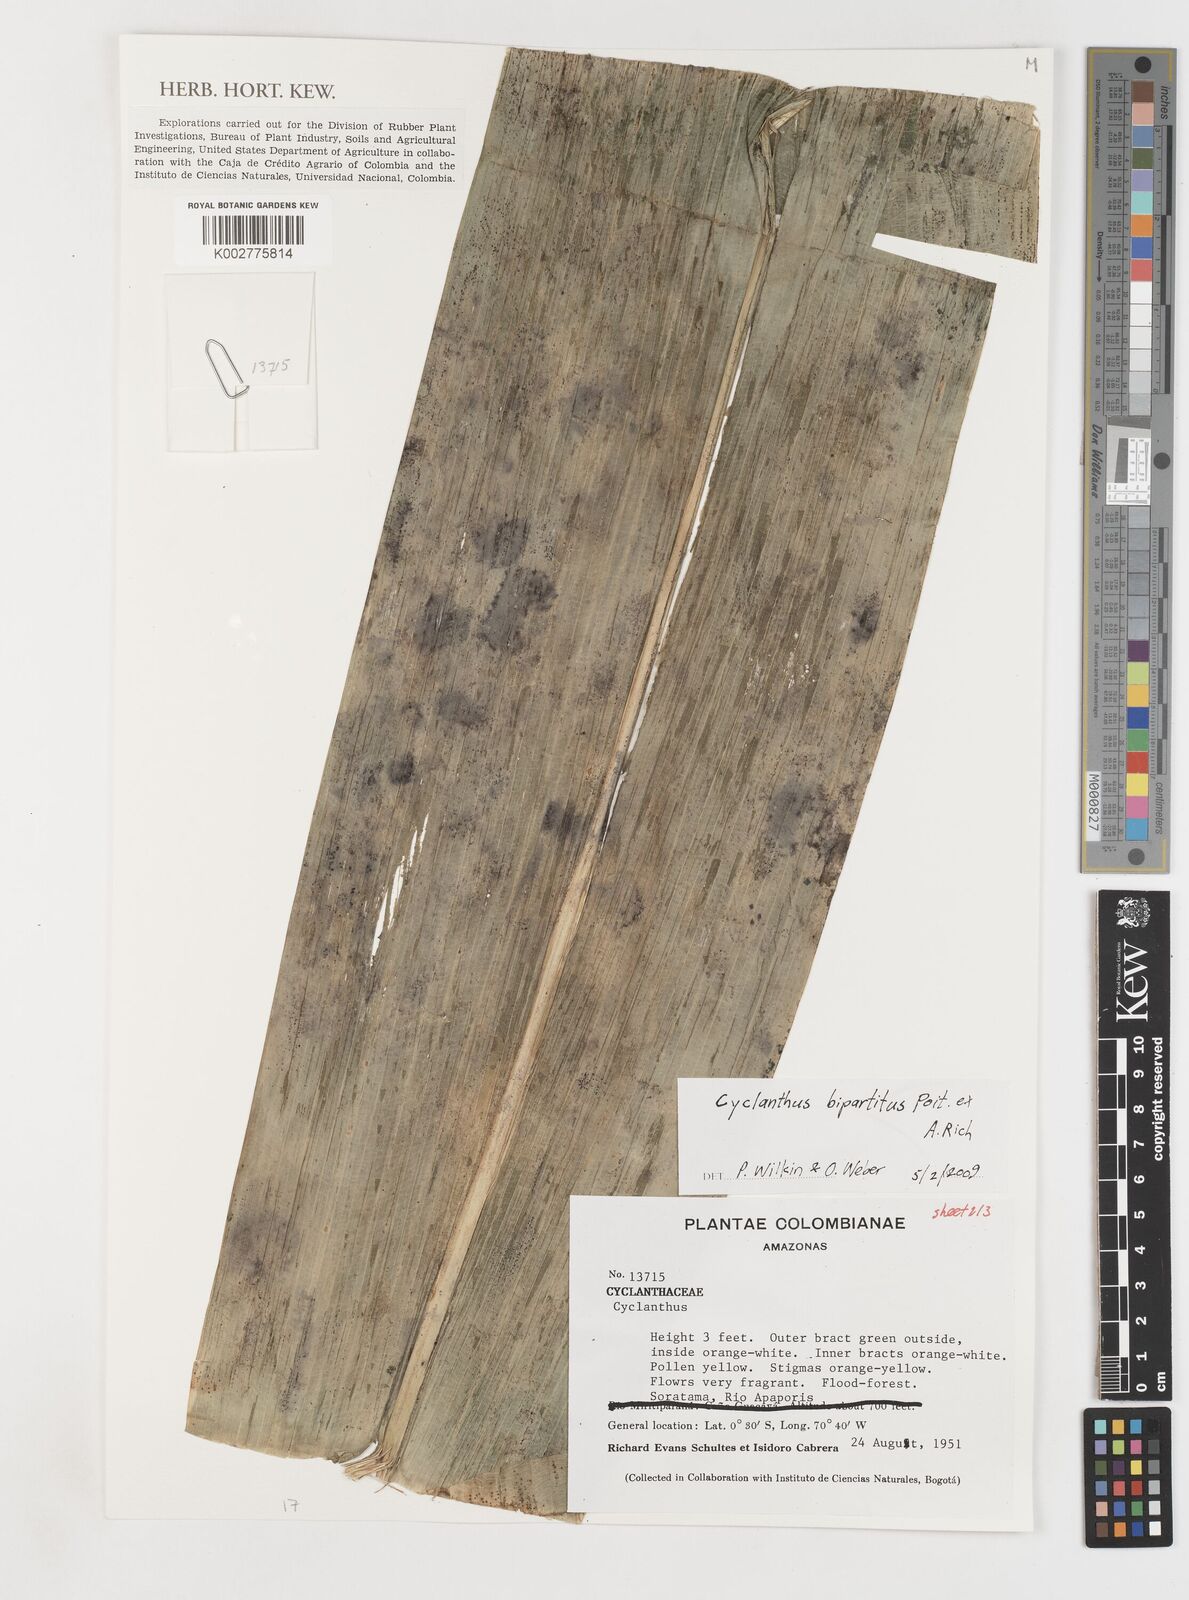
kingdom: Plantae
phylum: Tracheophyta
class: Liliopsida
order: Pandanales
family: Cyclanthaceae
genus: Cyclanthus
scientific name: Cyclanthus bipartitus
